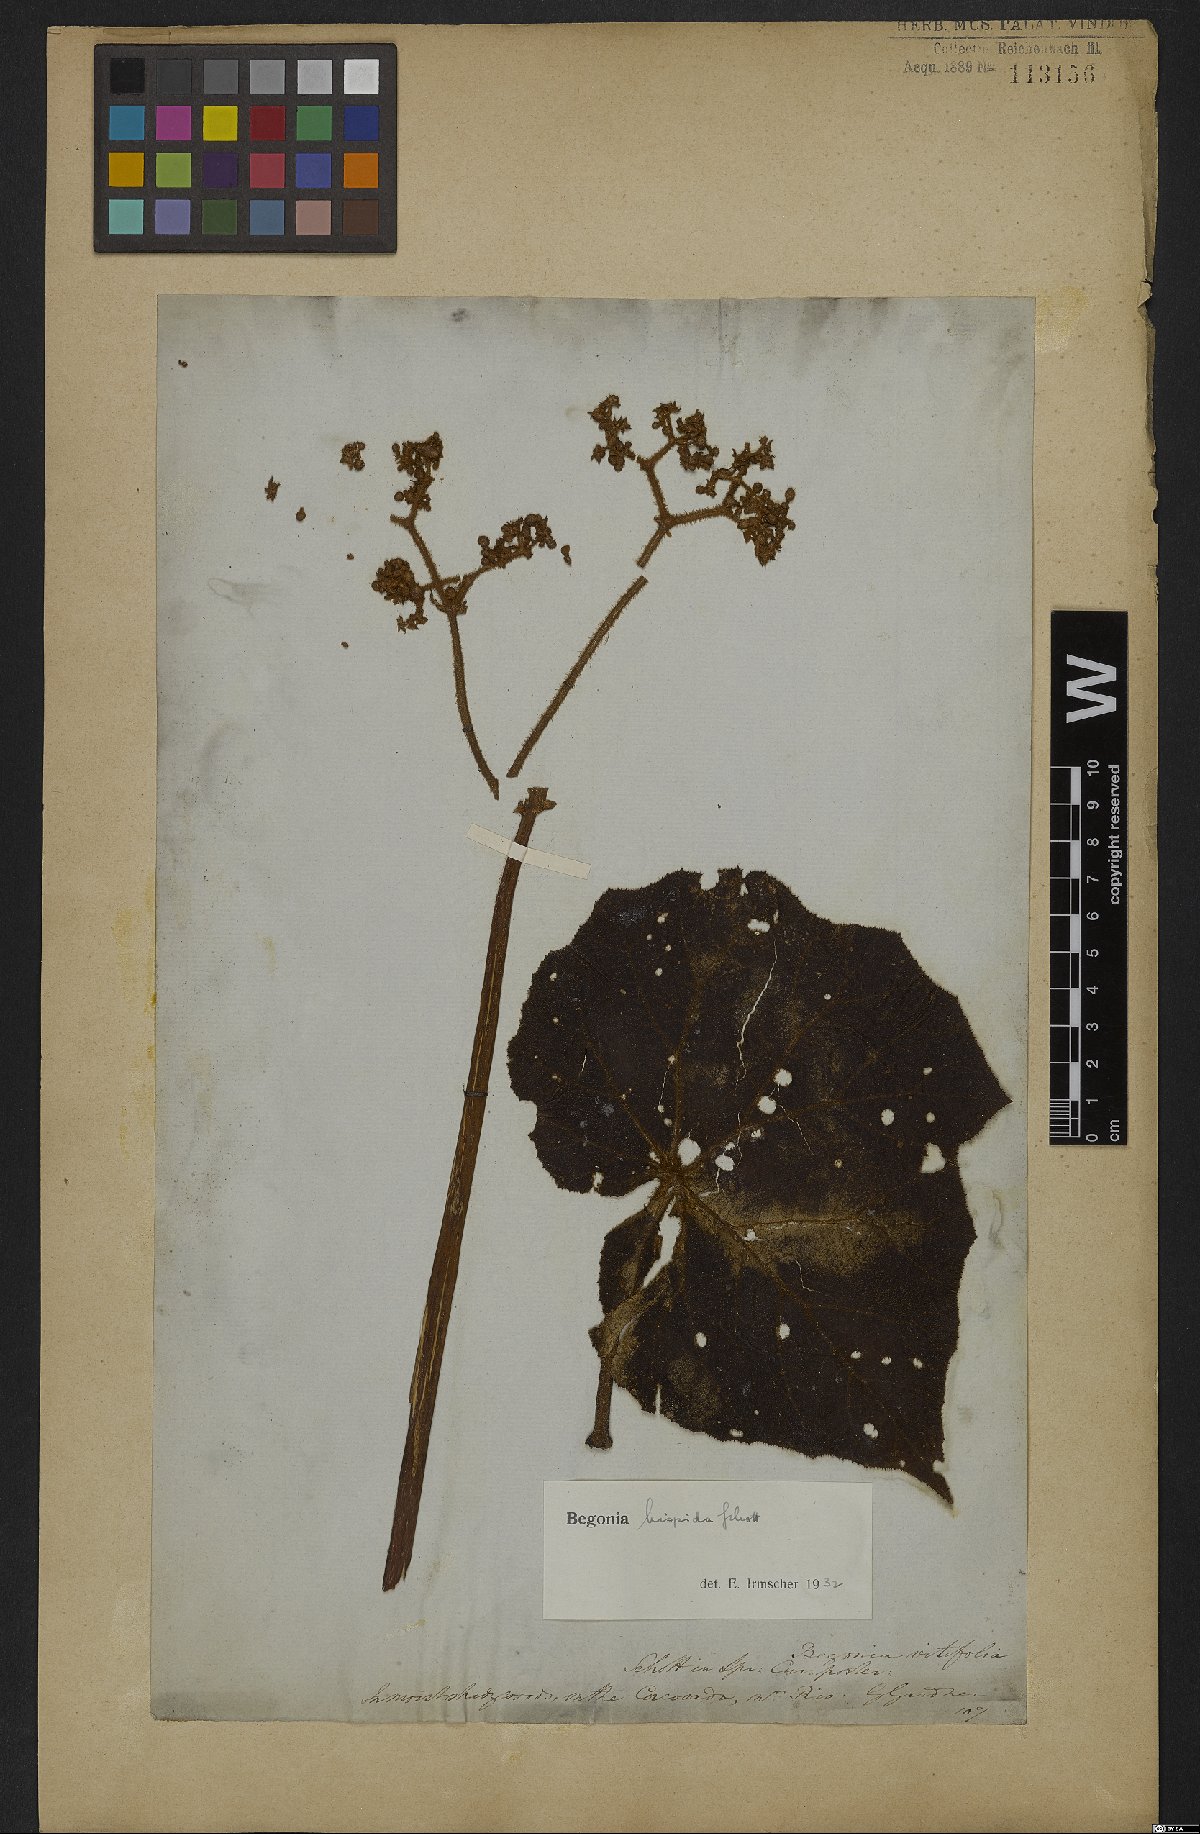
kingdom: Plantae
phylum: Tracheophyta
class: Magnoliopsida
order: Cucurbitales
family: Begoniaceae
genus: Begonia
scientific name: Begonia hispida
